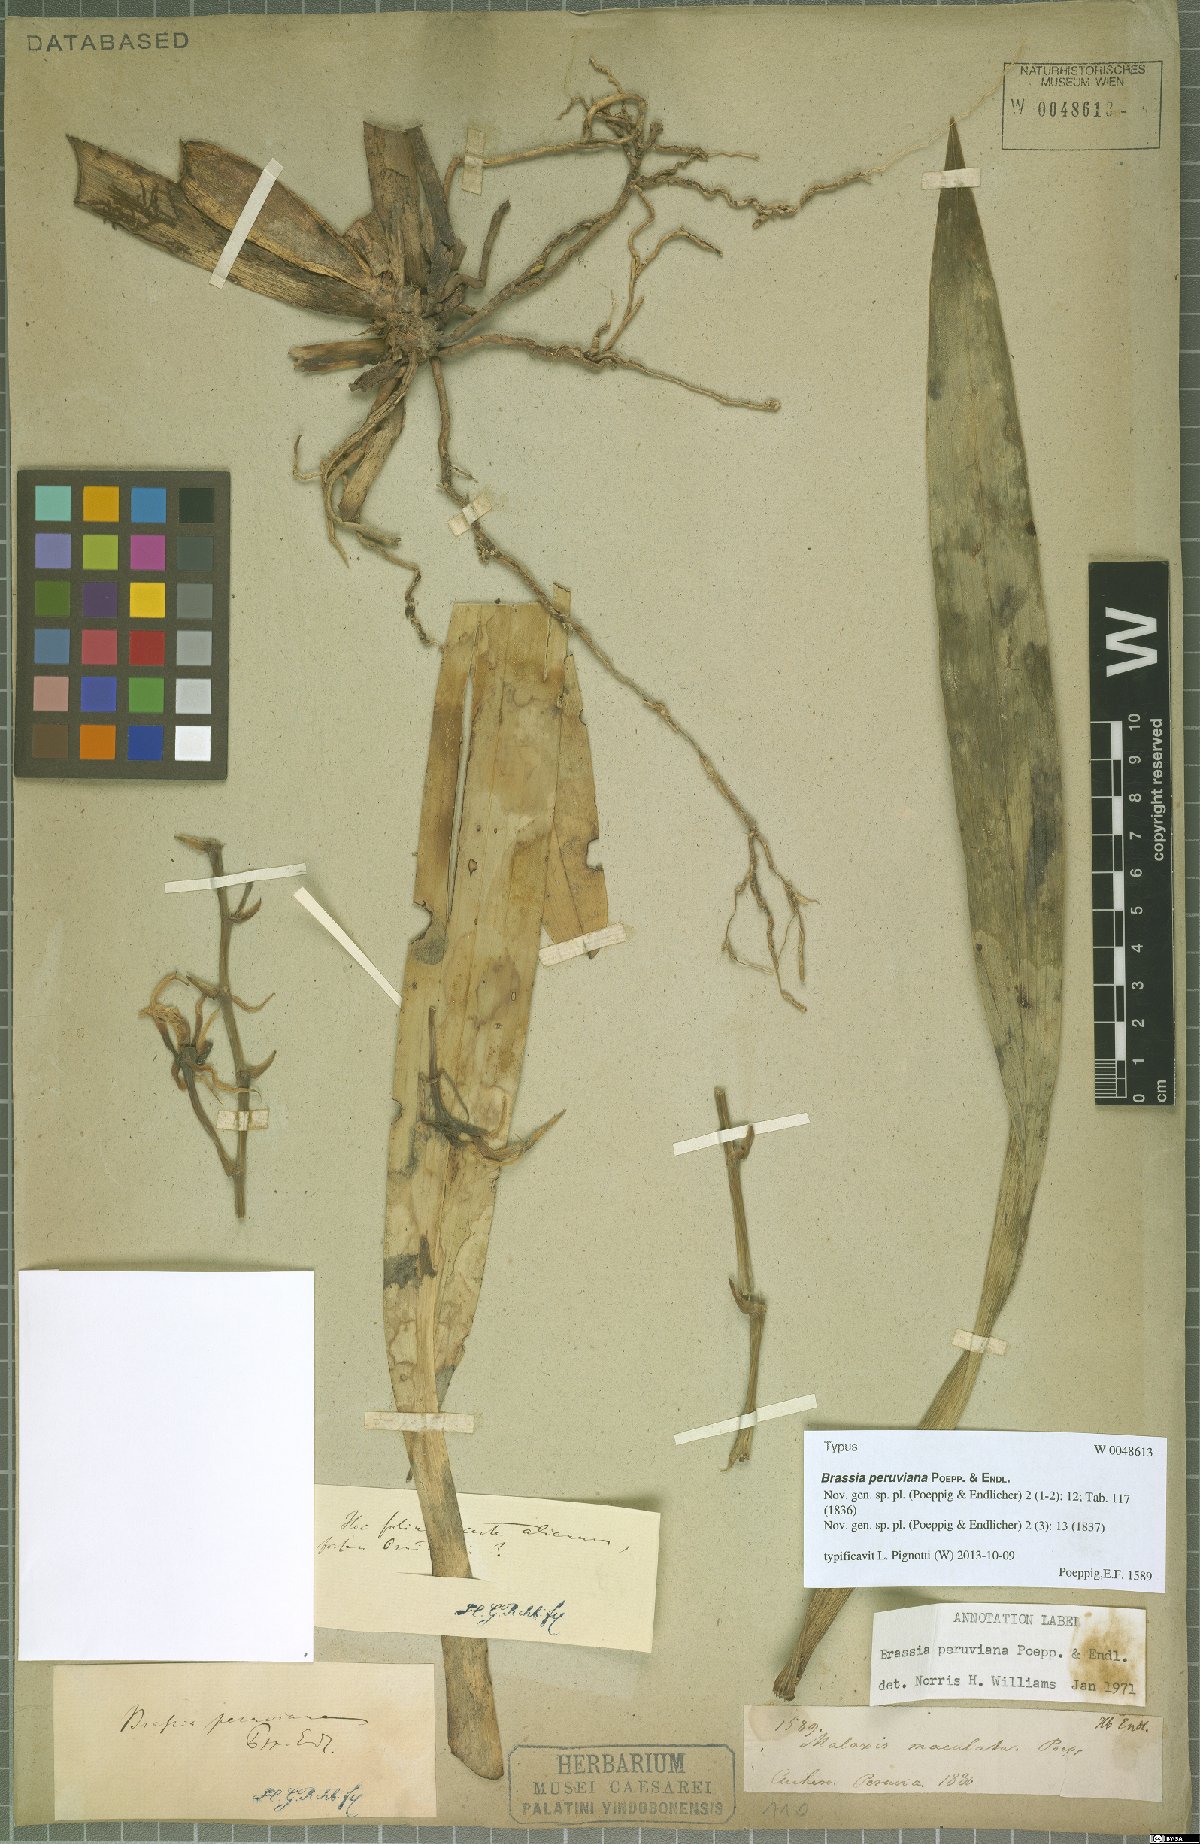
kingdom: Plantae
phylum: Tracheophyta
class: Liliopsida
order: Asparagales
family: Orchidaceae
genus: Brassia
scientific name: Brassia peruviana
